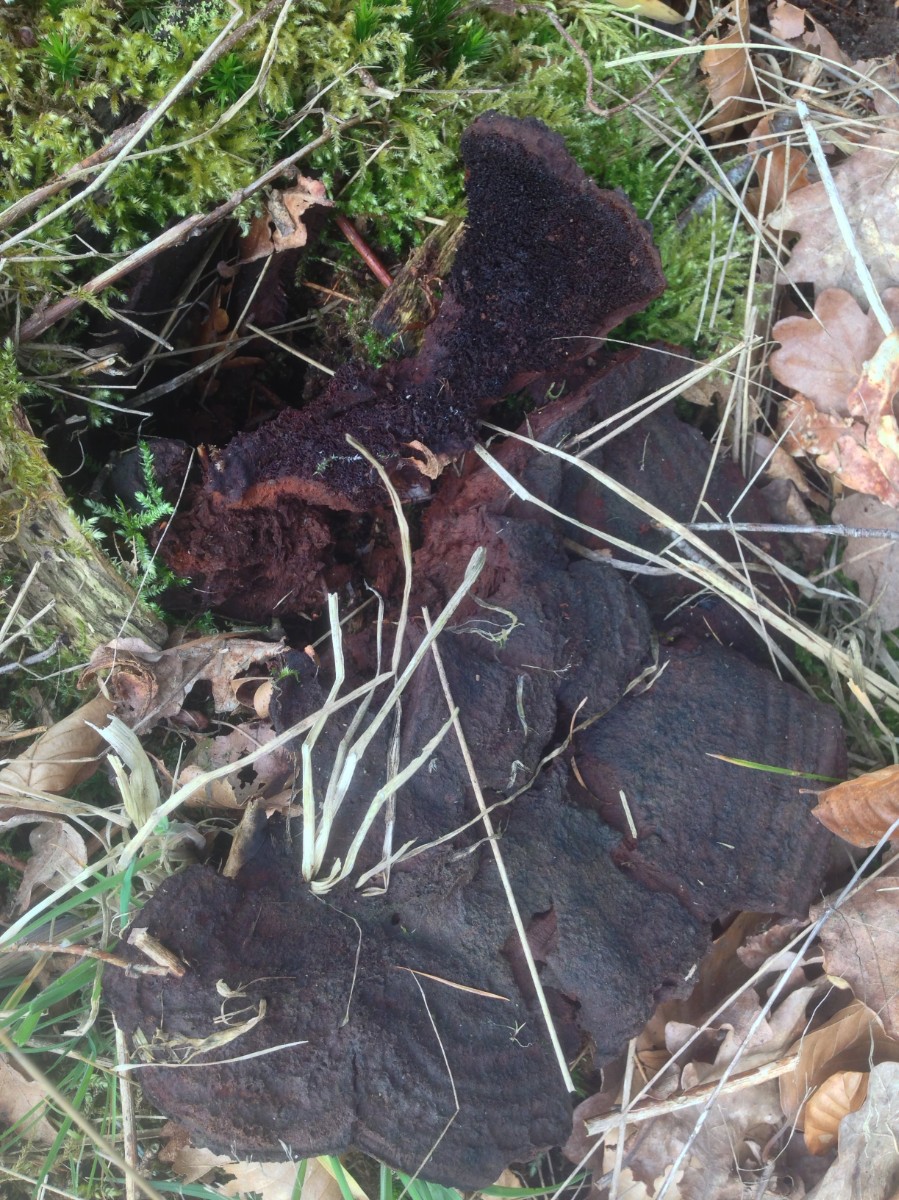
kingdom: Fungi
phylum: Basidiomycota
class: Agaricomycetes
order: Polyporales
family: Laetiporaceae
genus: Phaeolus
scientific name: Phaeolus schweinitzii
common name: brunporesvamp
